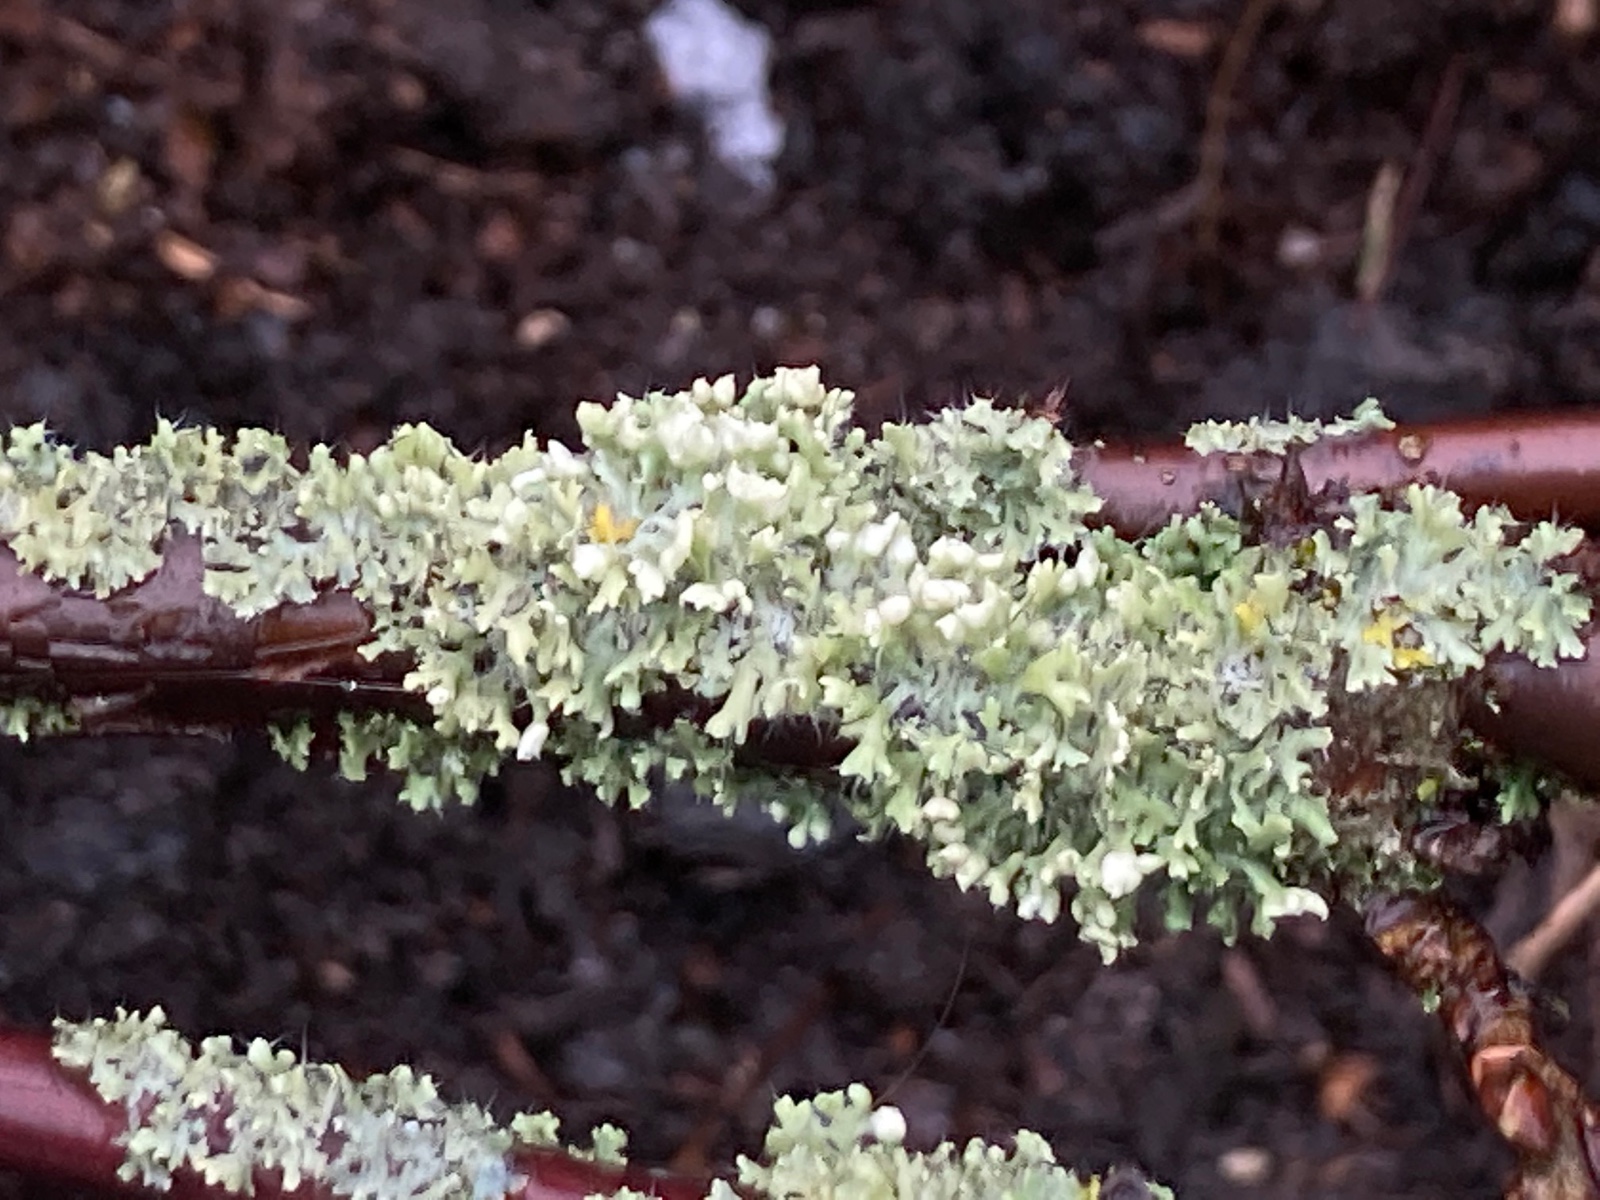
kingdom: Fungi
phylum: Ascomycota
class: Lecanoromycetes
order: Caliciales
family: Physciaceae
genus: Physcia
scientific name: Physcia adscendens
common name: hætte-rosetlav
